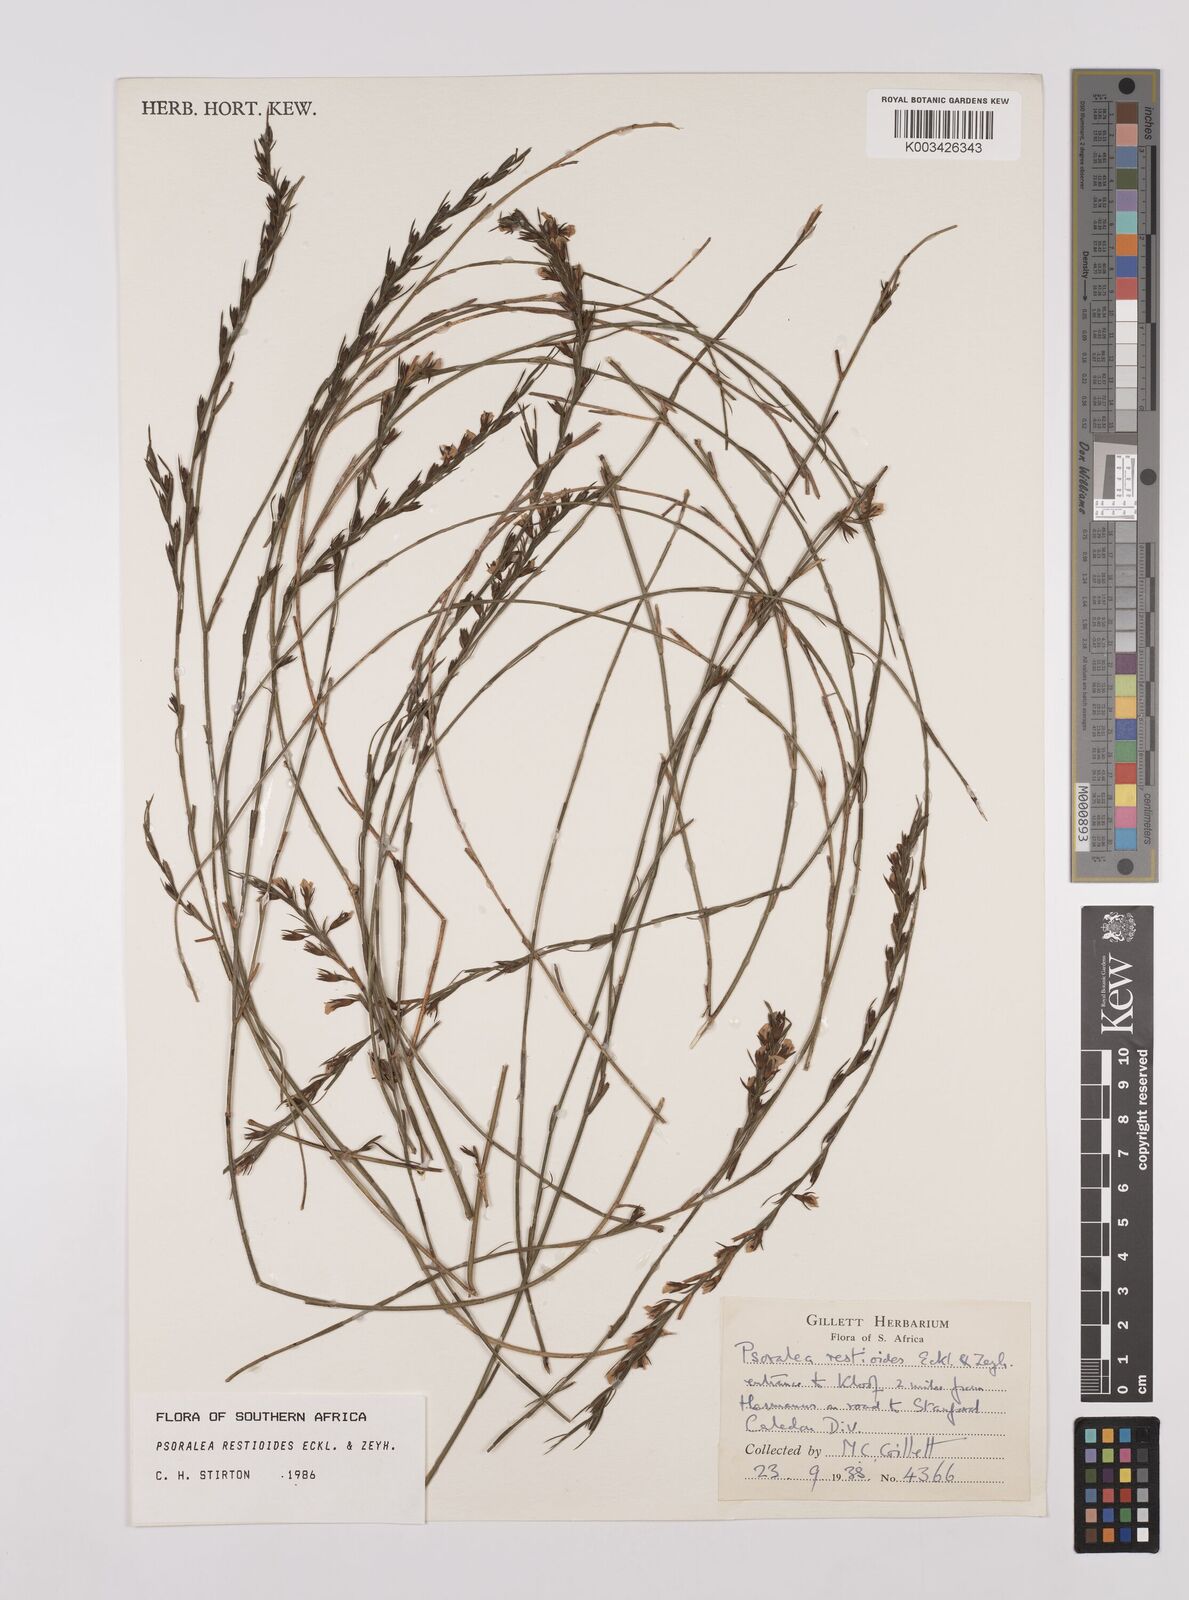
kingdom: Plantae
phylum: Tracheophyta
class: Magnoliopsida
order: Fabales
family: Fabaceae
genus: Psoralea
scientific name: Psoralea restioides
